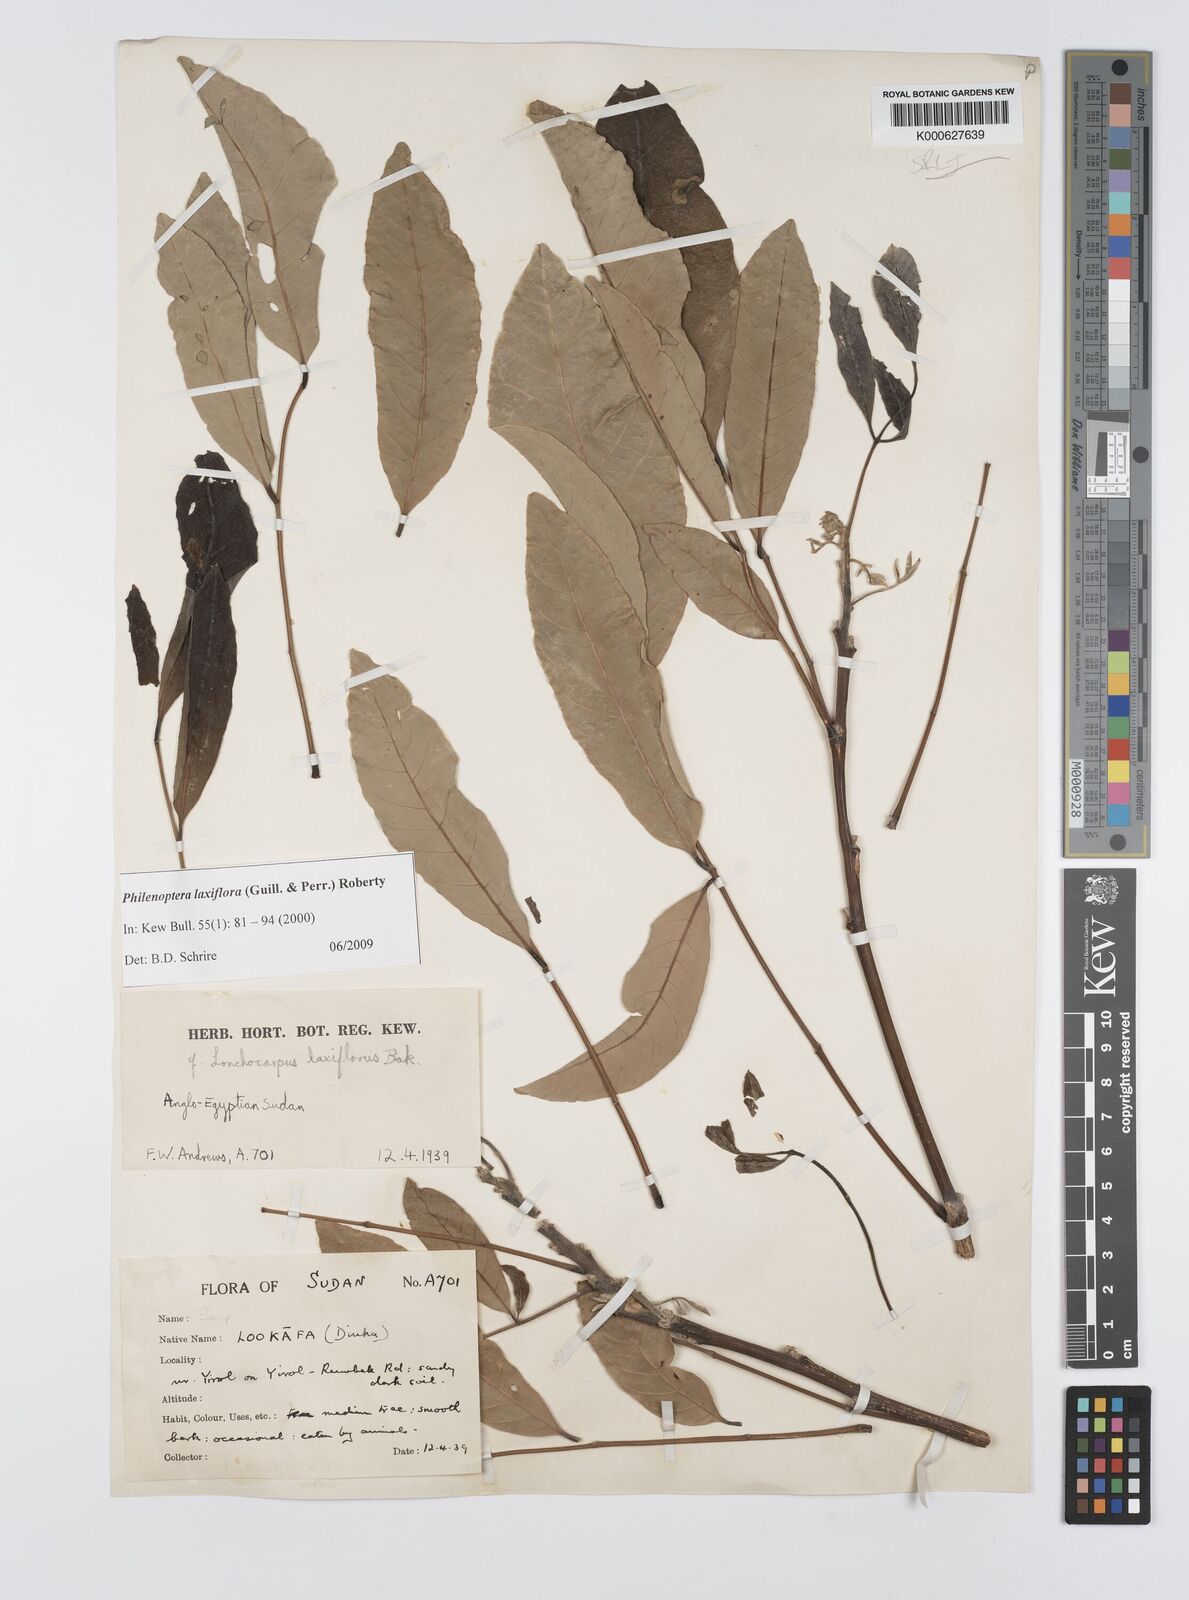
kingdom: Plantae
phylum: Tracheophyta
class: Magnoliopsida
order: Fabales
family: Fabaceae
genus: Philenoptera
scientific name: Philenoptera laxiflora
